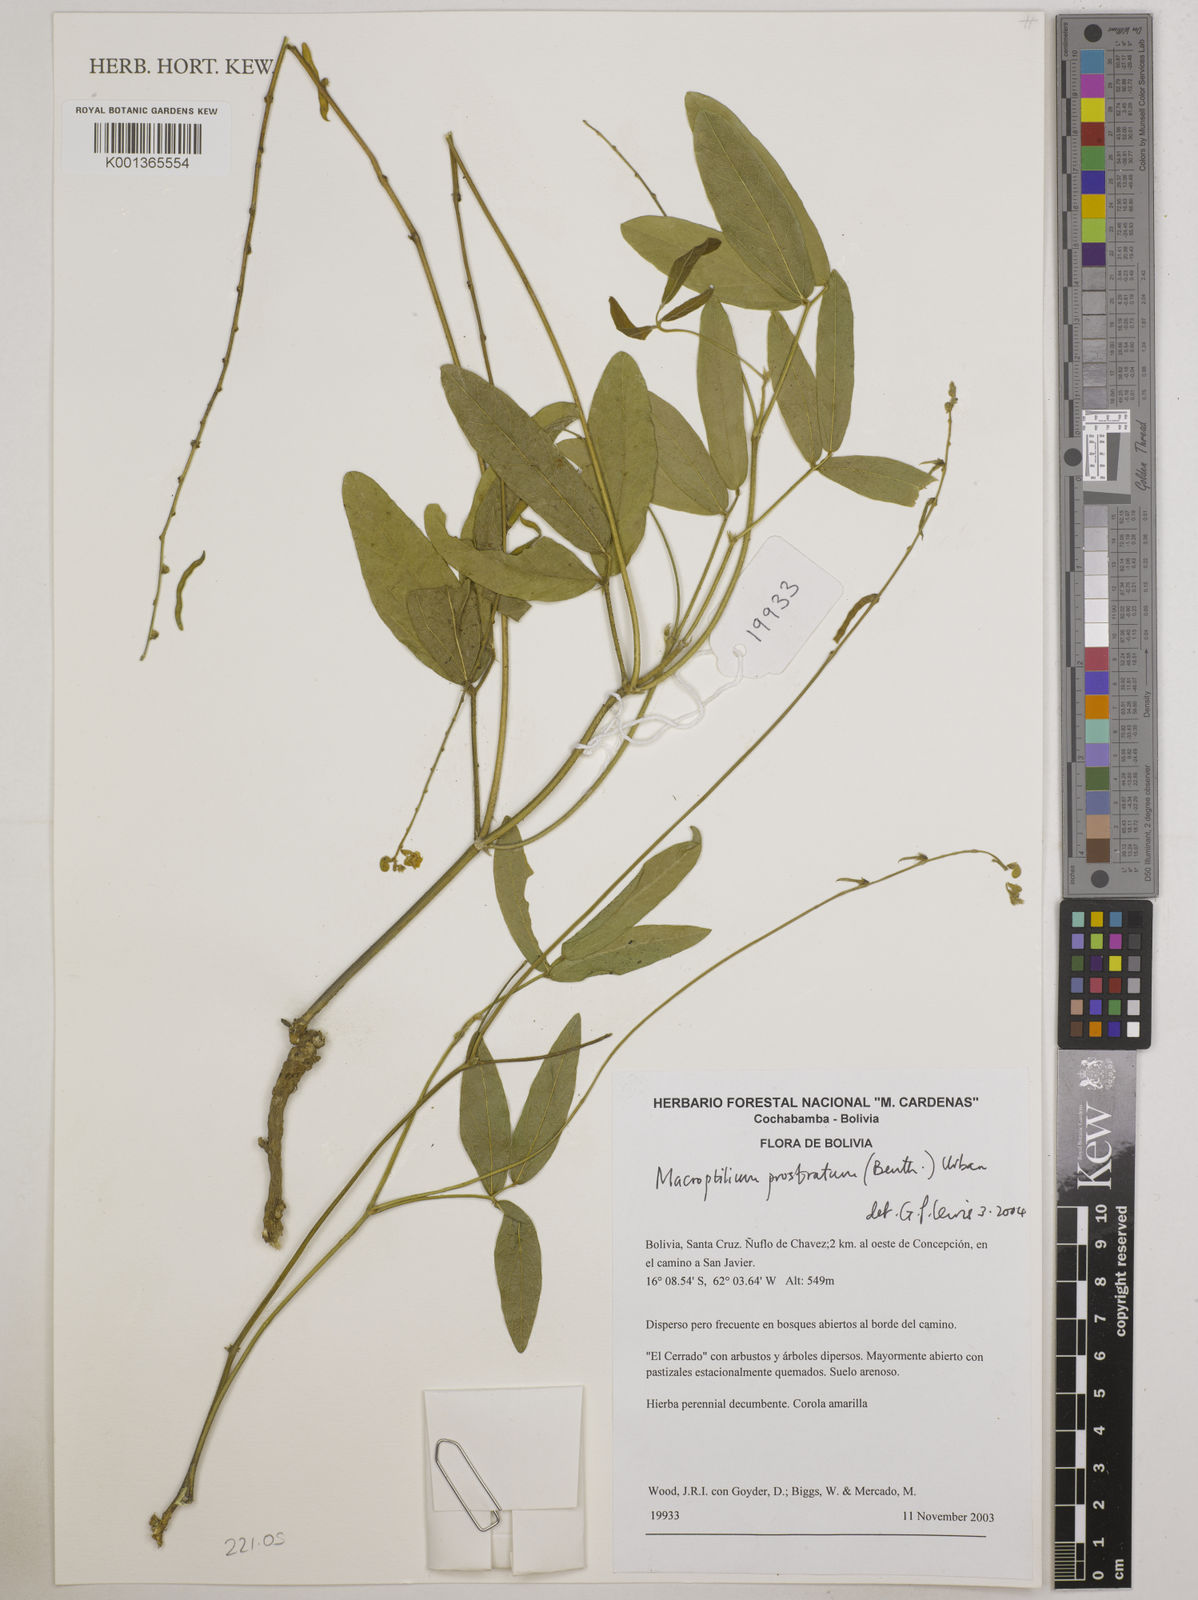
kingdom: Plantae
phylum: Tracheophyta
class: Magnoliopsida
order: Fabales
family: Fabaceae
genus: Macroptilium
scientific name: Macroptilium prostratum
